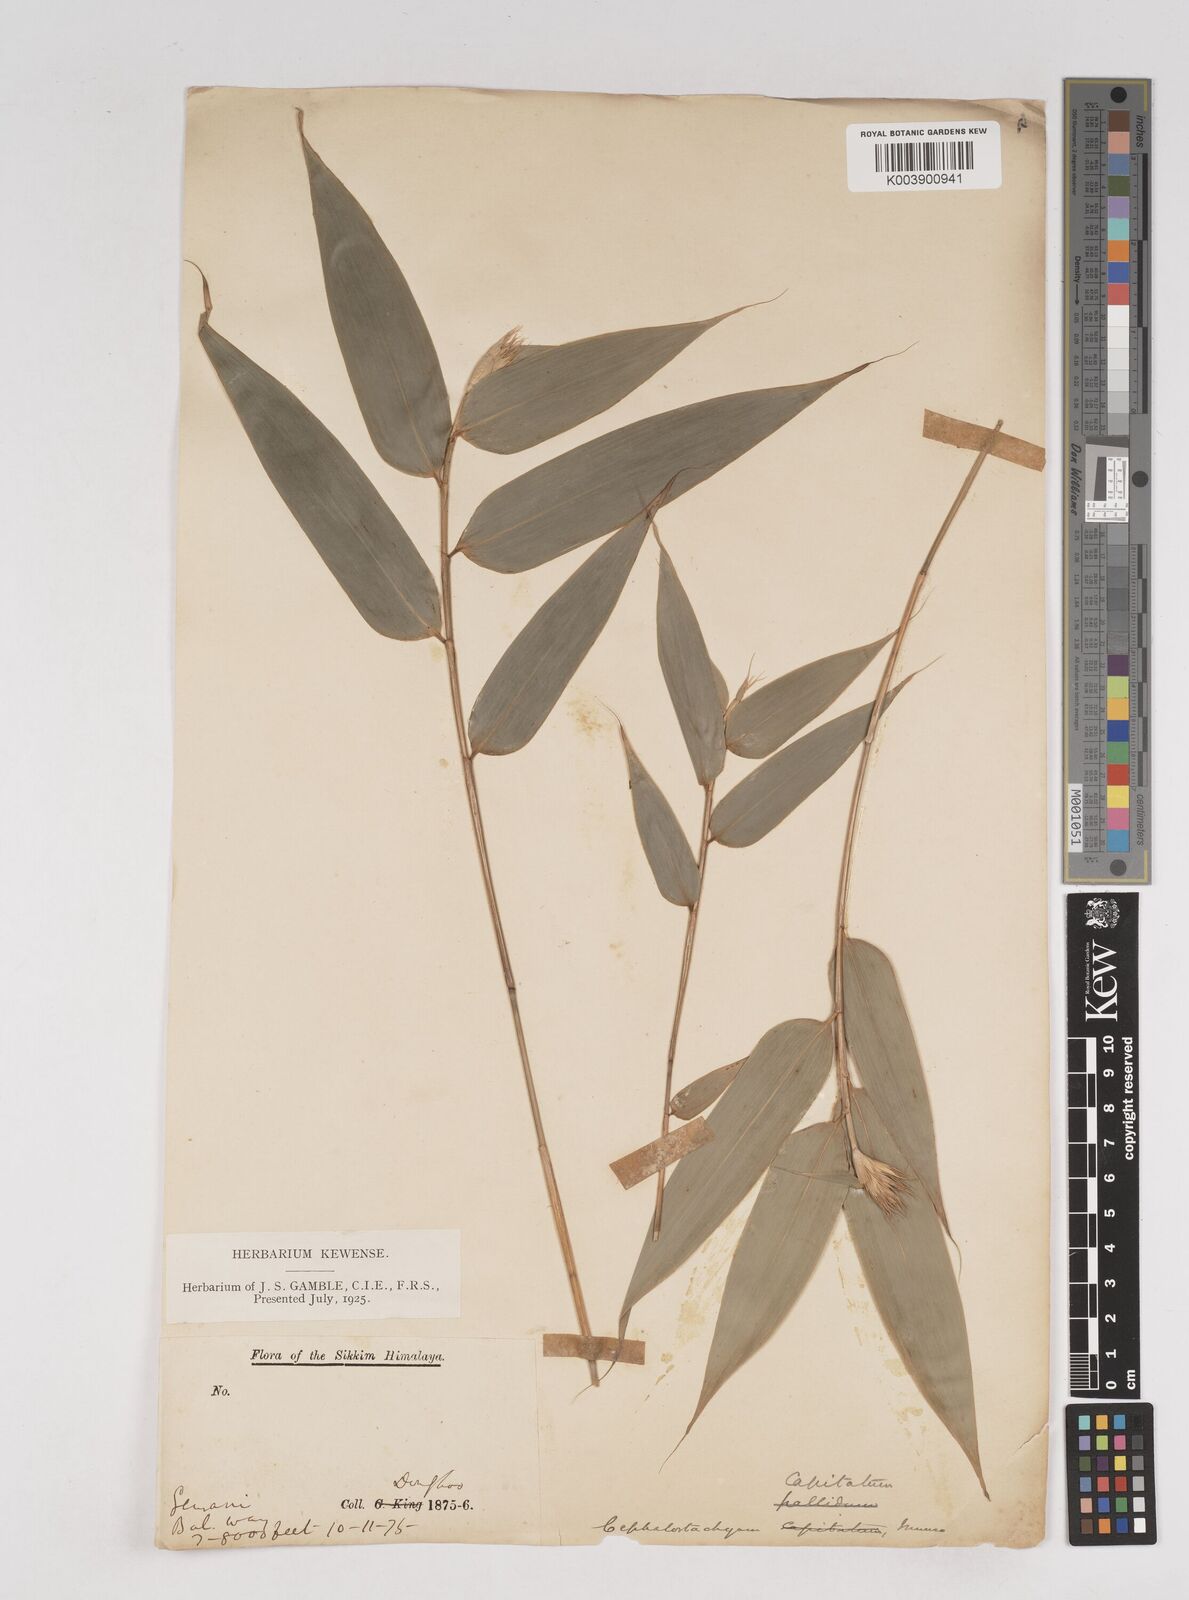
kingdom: Plantae
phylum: Tracheophyta
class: Liliopsida
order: Poales
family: Poaceae
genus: Cephalostachyum
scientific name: Cephalostachyum
